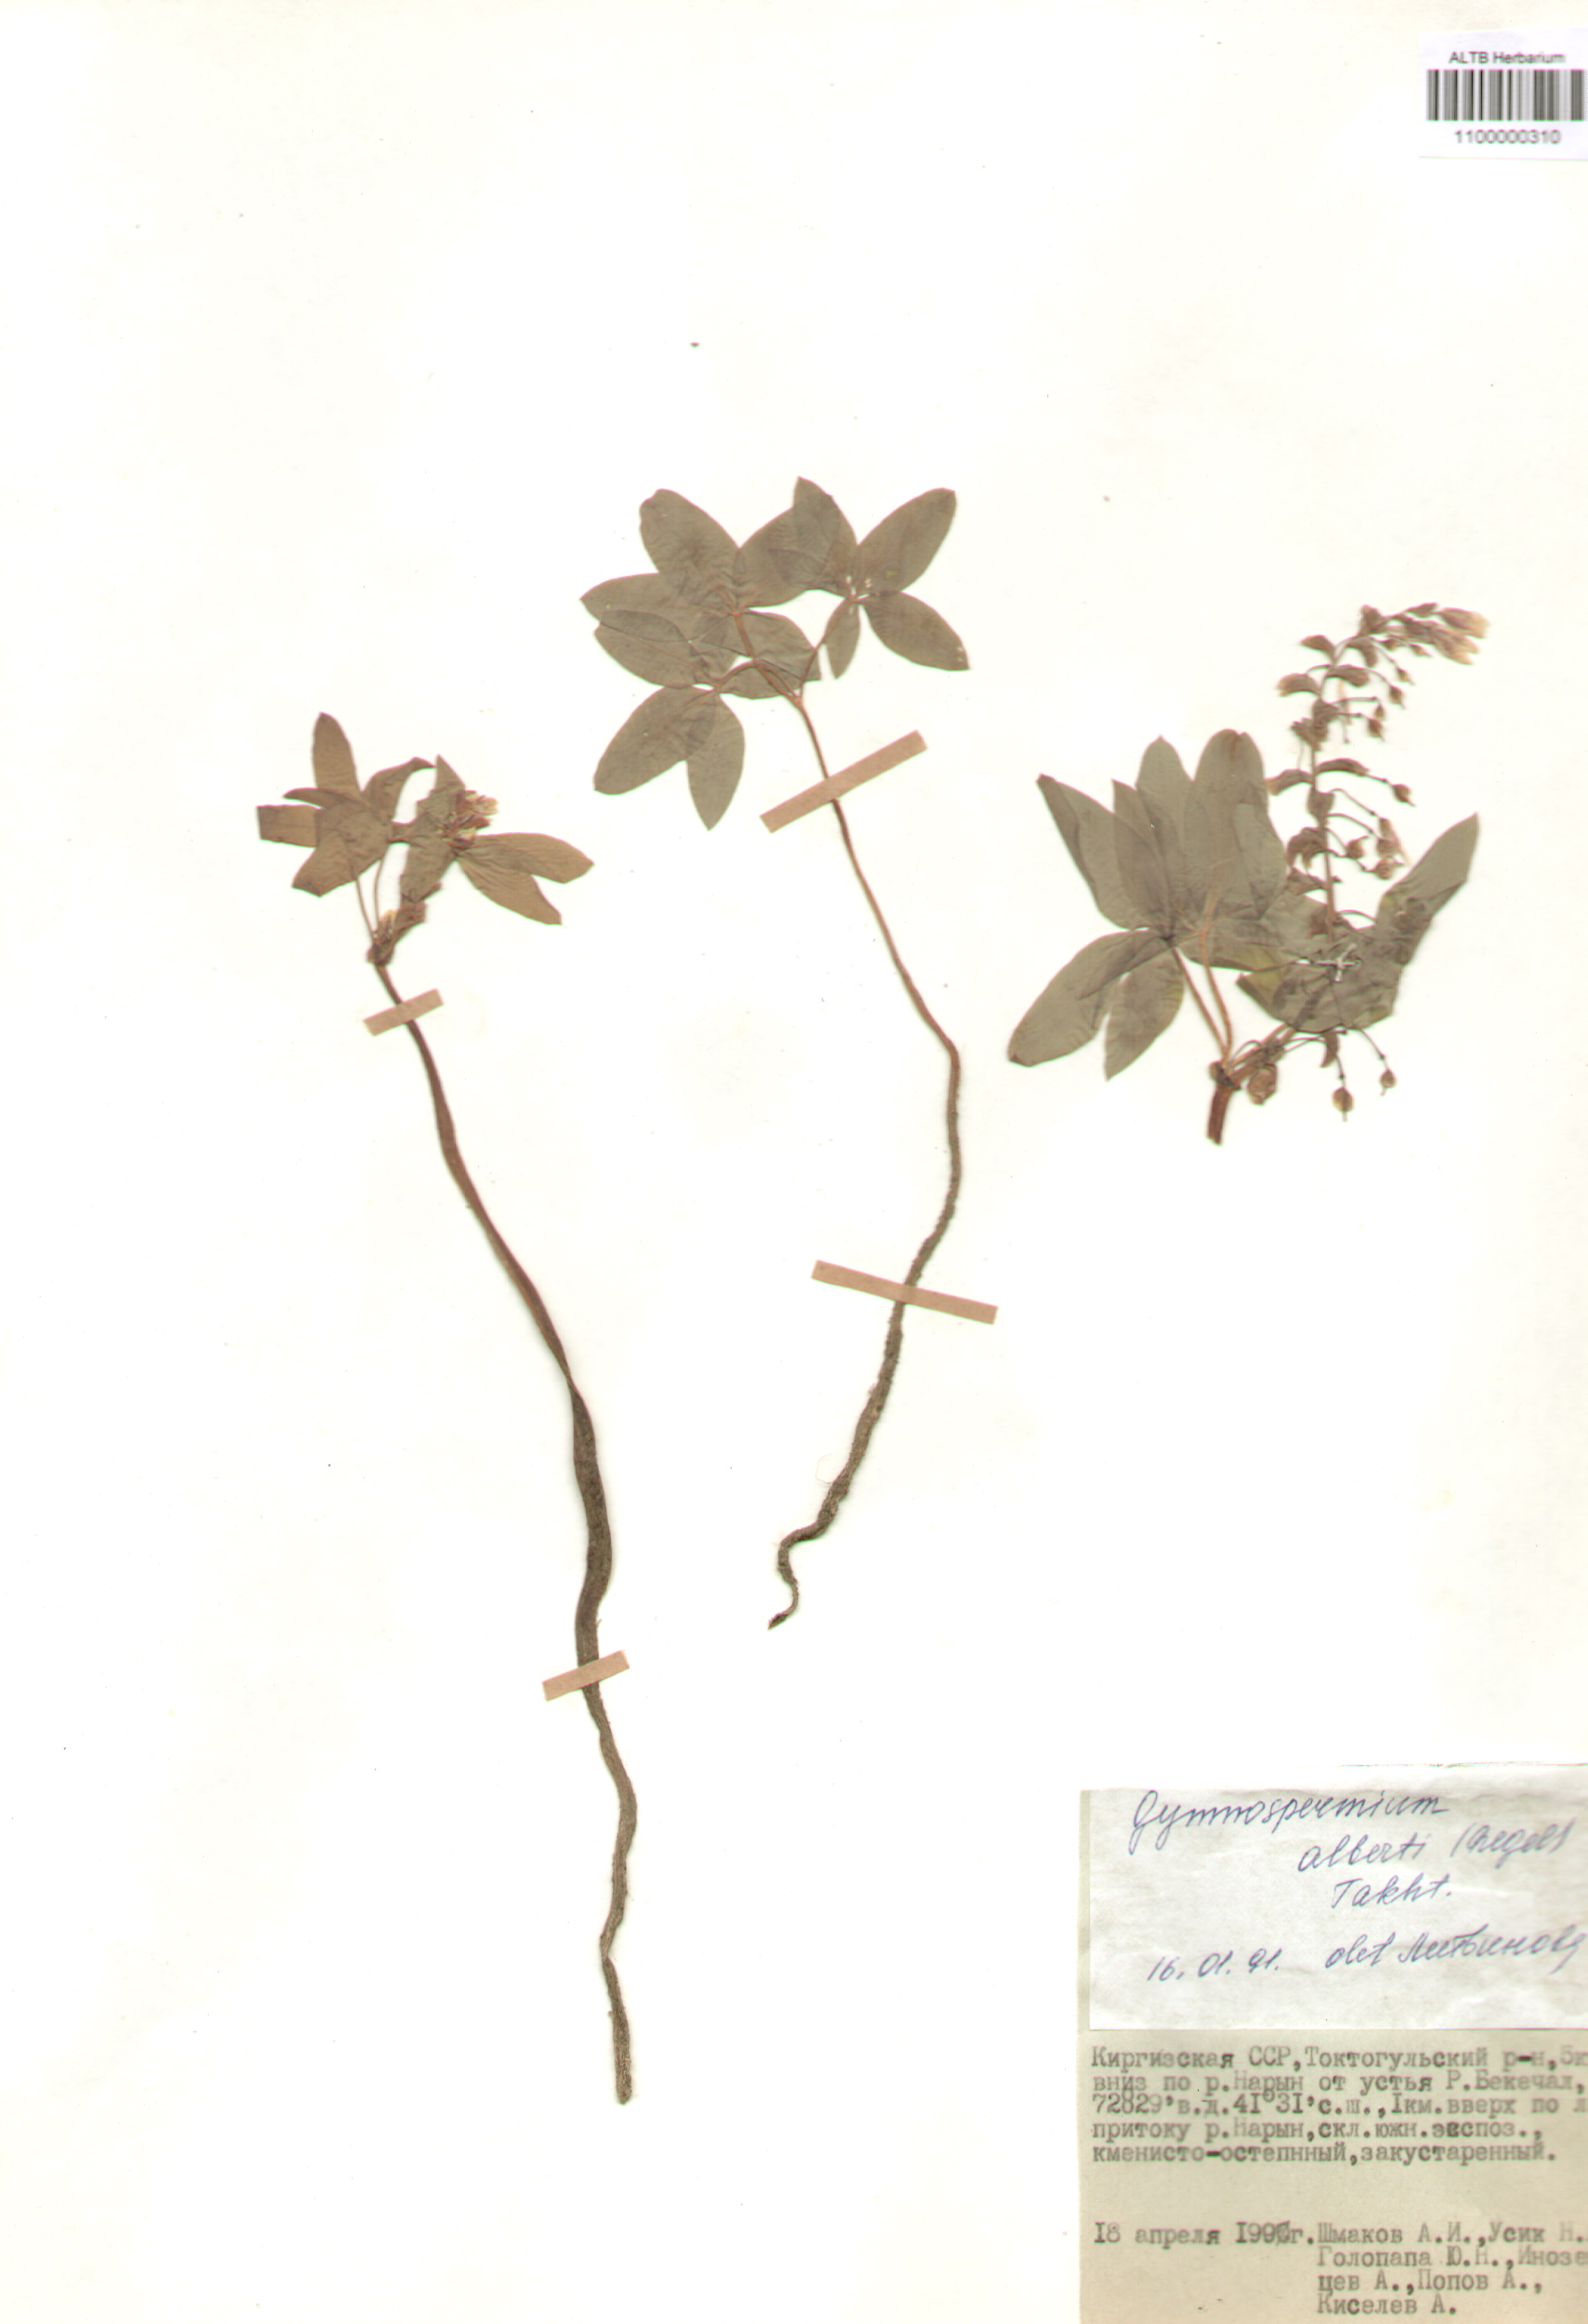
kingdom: Plantae
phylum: Tracheophyta
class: Magnoliopsida
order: Ranunculales
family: Berberidaceae
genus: Gymnospermium
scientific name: Gymnospermium alberti
